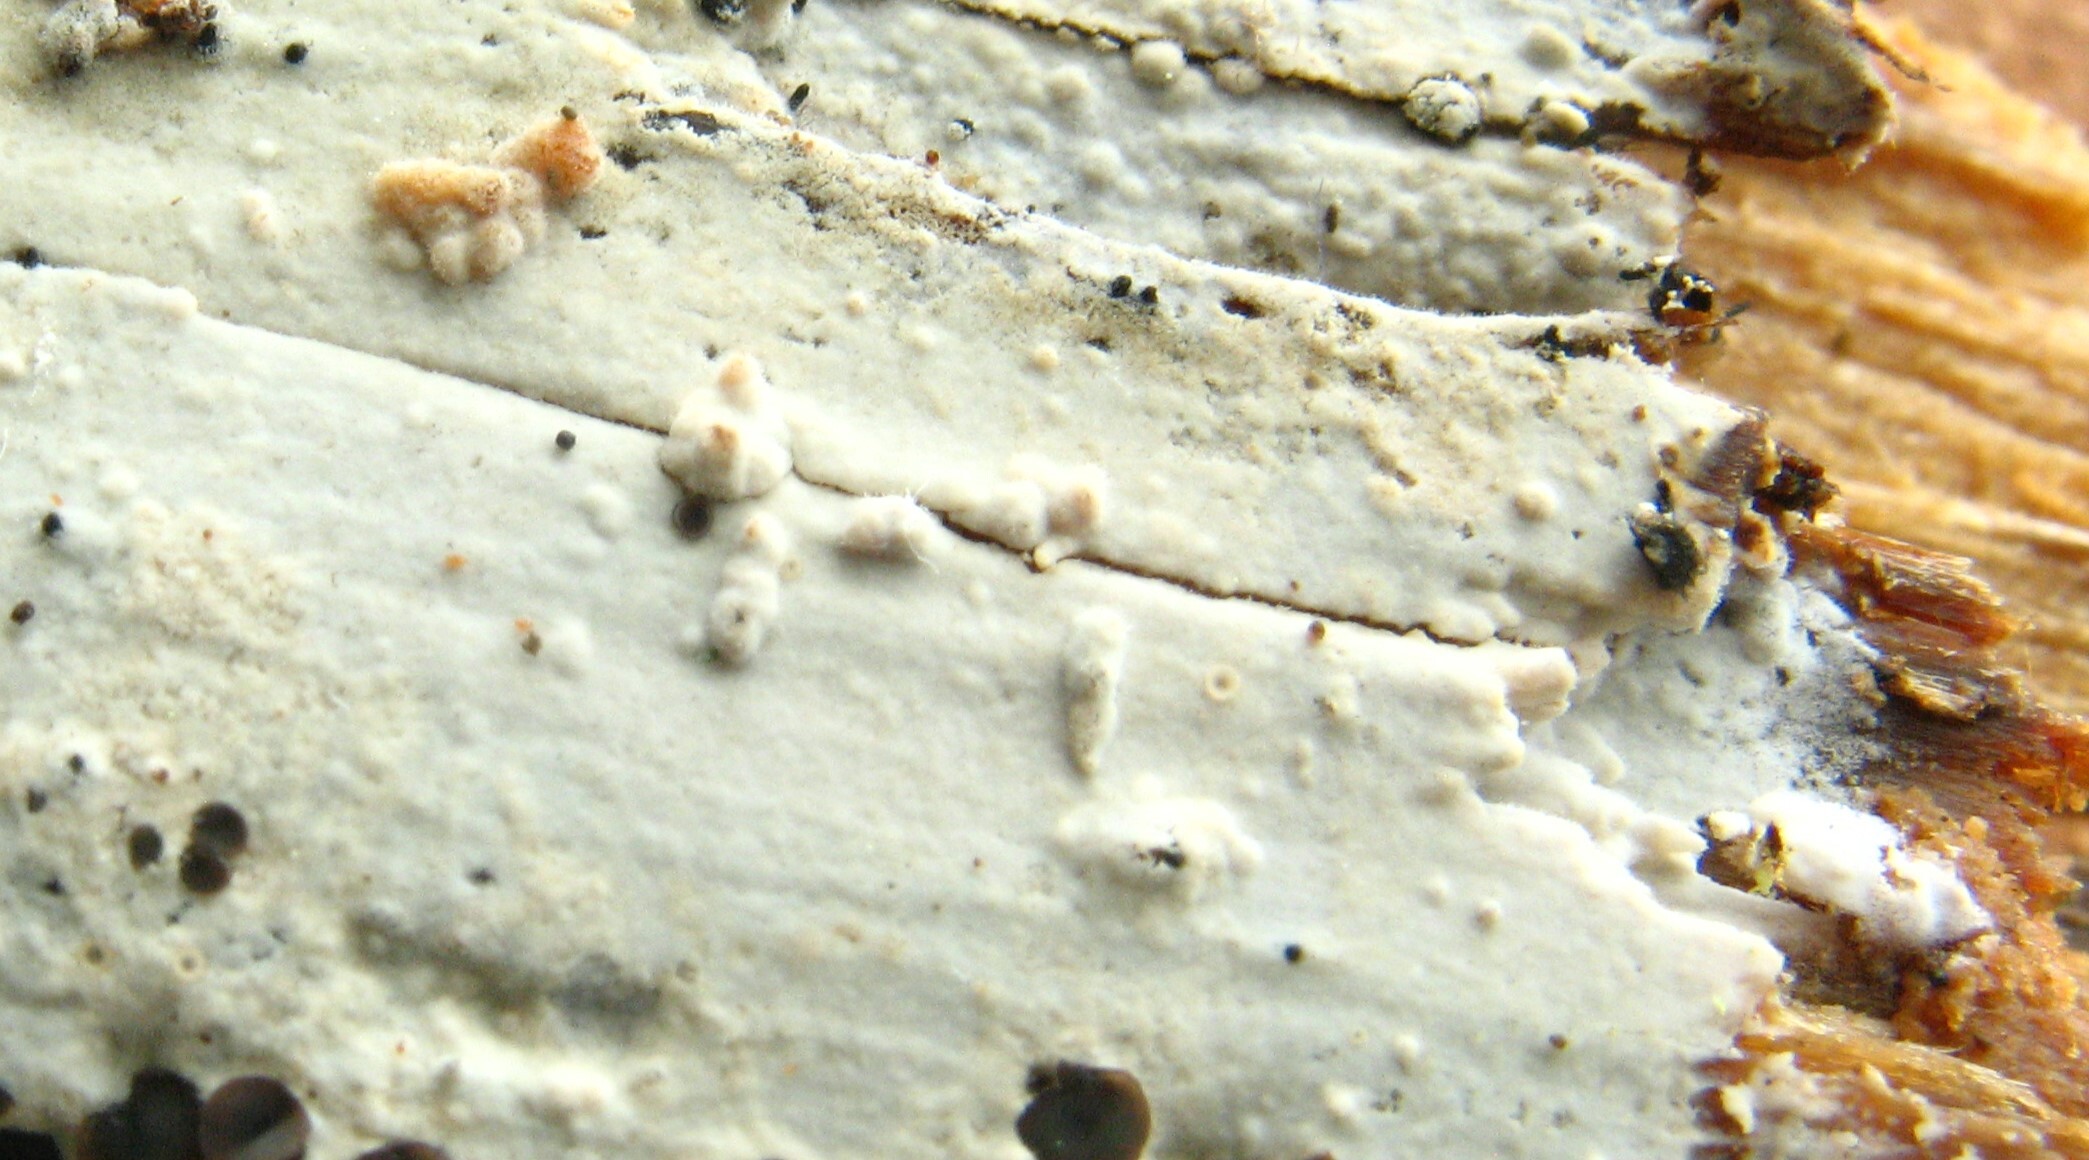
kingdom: Fungi
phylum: Basidiomycota
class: Agaricomycetes
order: Hymenochaetales
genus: Kurtia
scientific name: Kurtia argillacea
